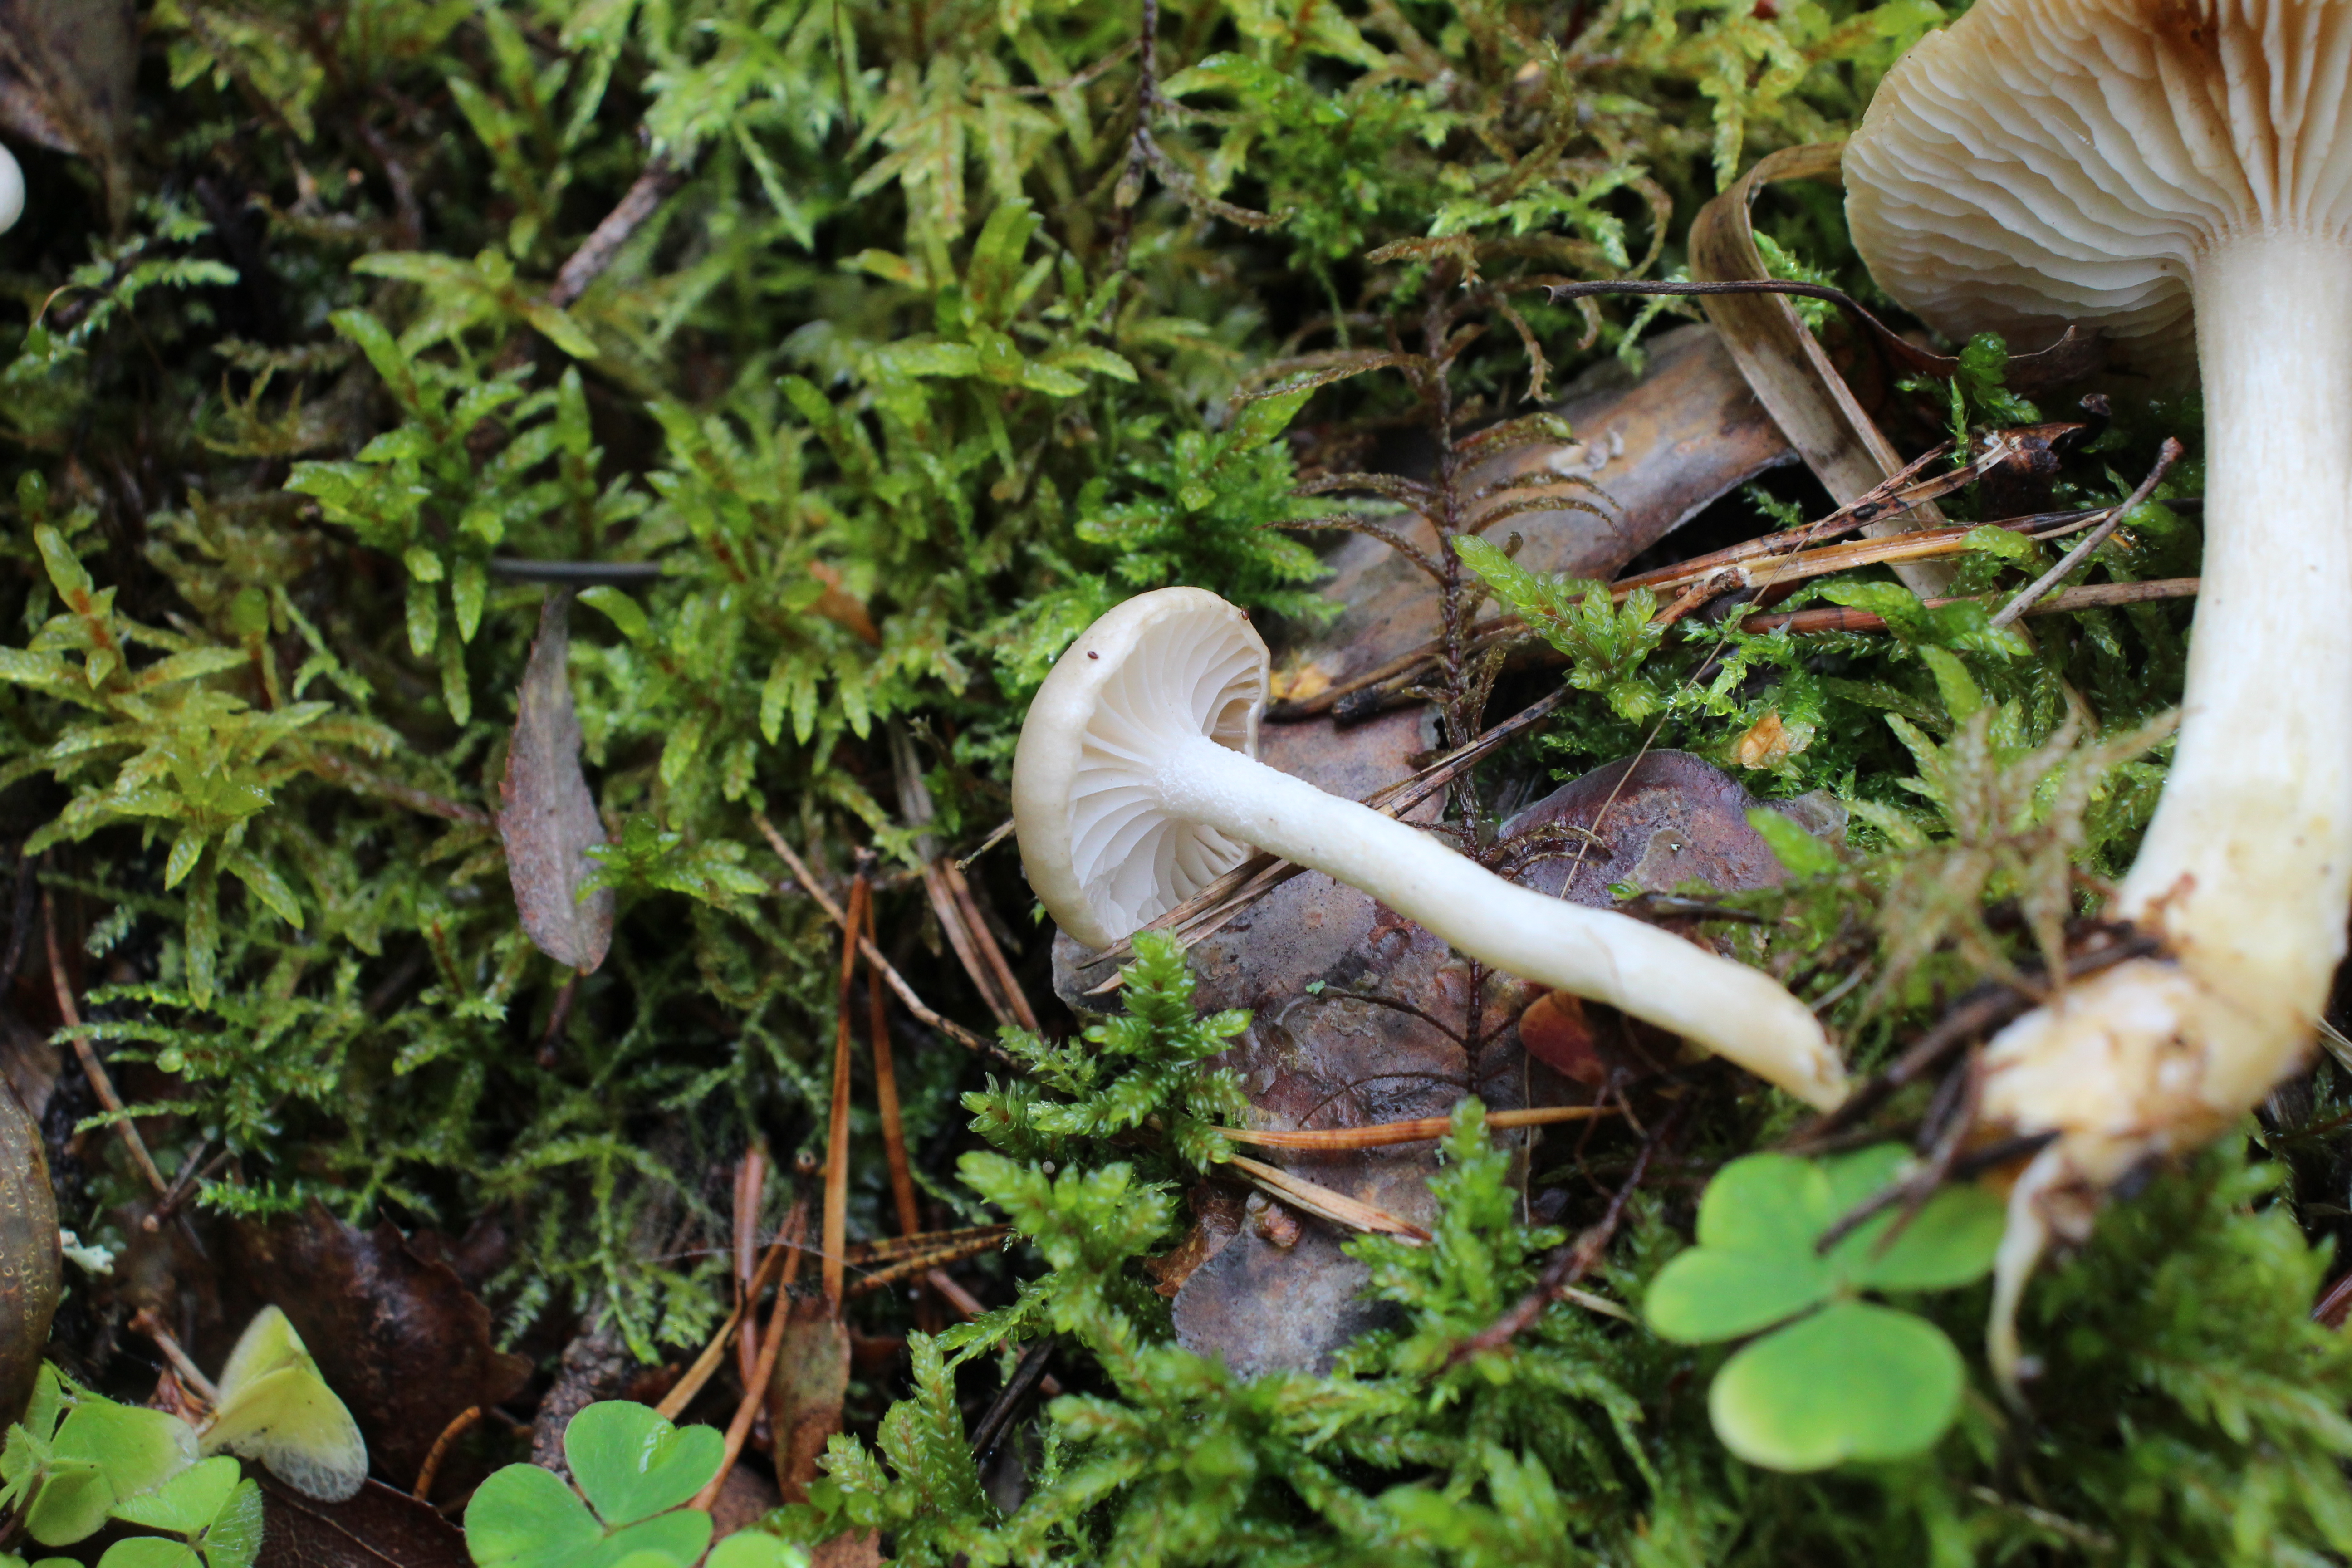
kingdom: Fungi
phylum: Basidiomycota
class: Agaricomycetes
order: Agaricales
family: Hygrophoraceae
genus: Hygrophorus
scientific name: Hygrophorus exiguus
